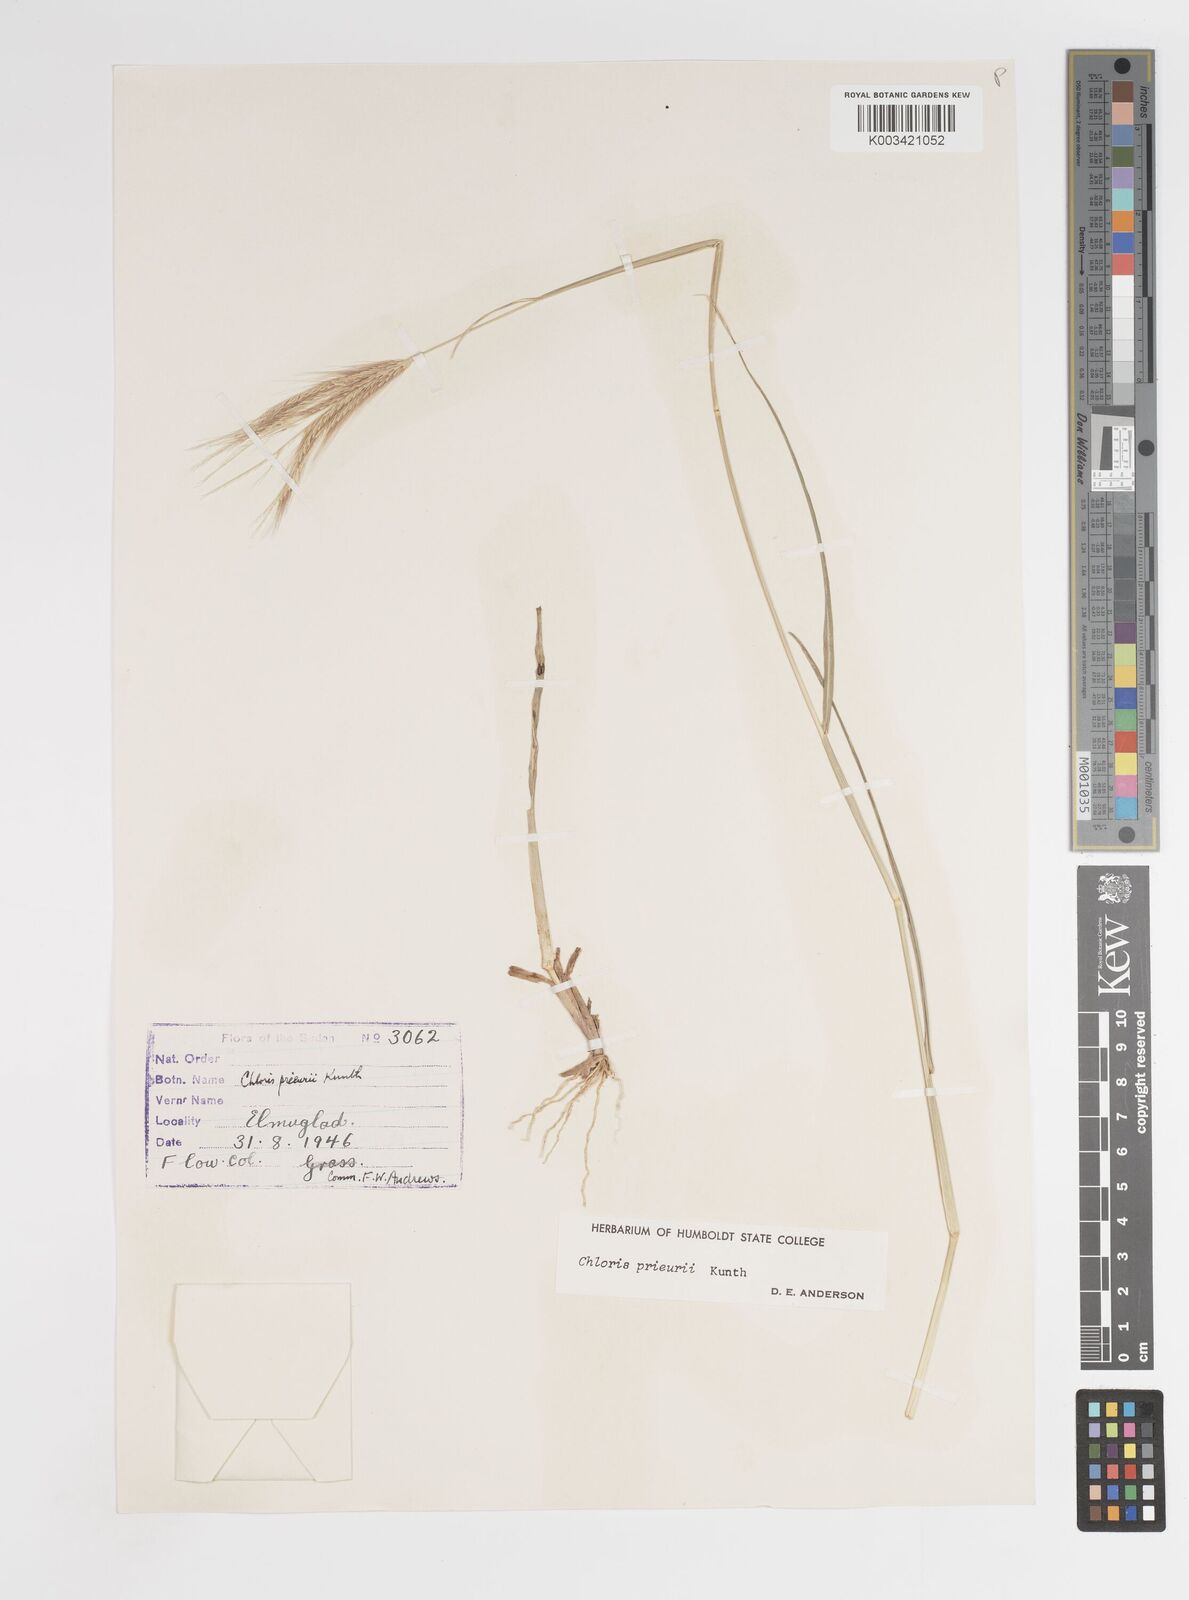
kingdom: Plantae
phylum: Tracheophyta
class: Liliopsida
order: Poales
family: Poaceae
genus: Enteropogon
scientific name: Enteropogon prieurii
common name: Prieur's umbrellagrass
